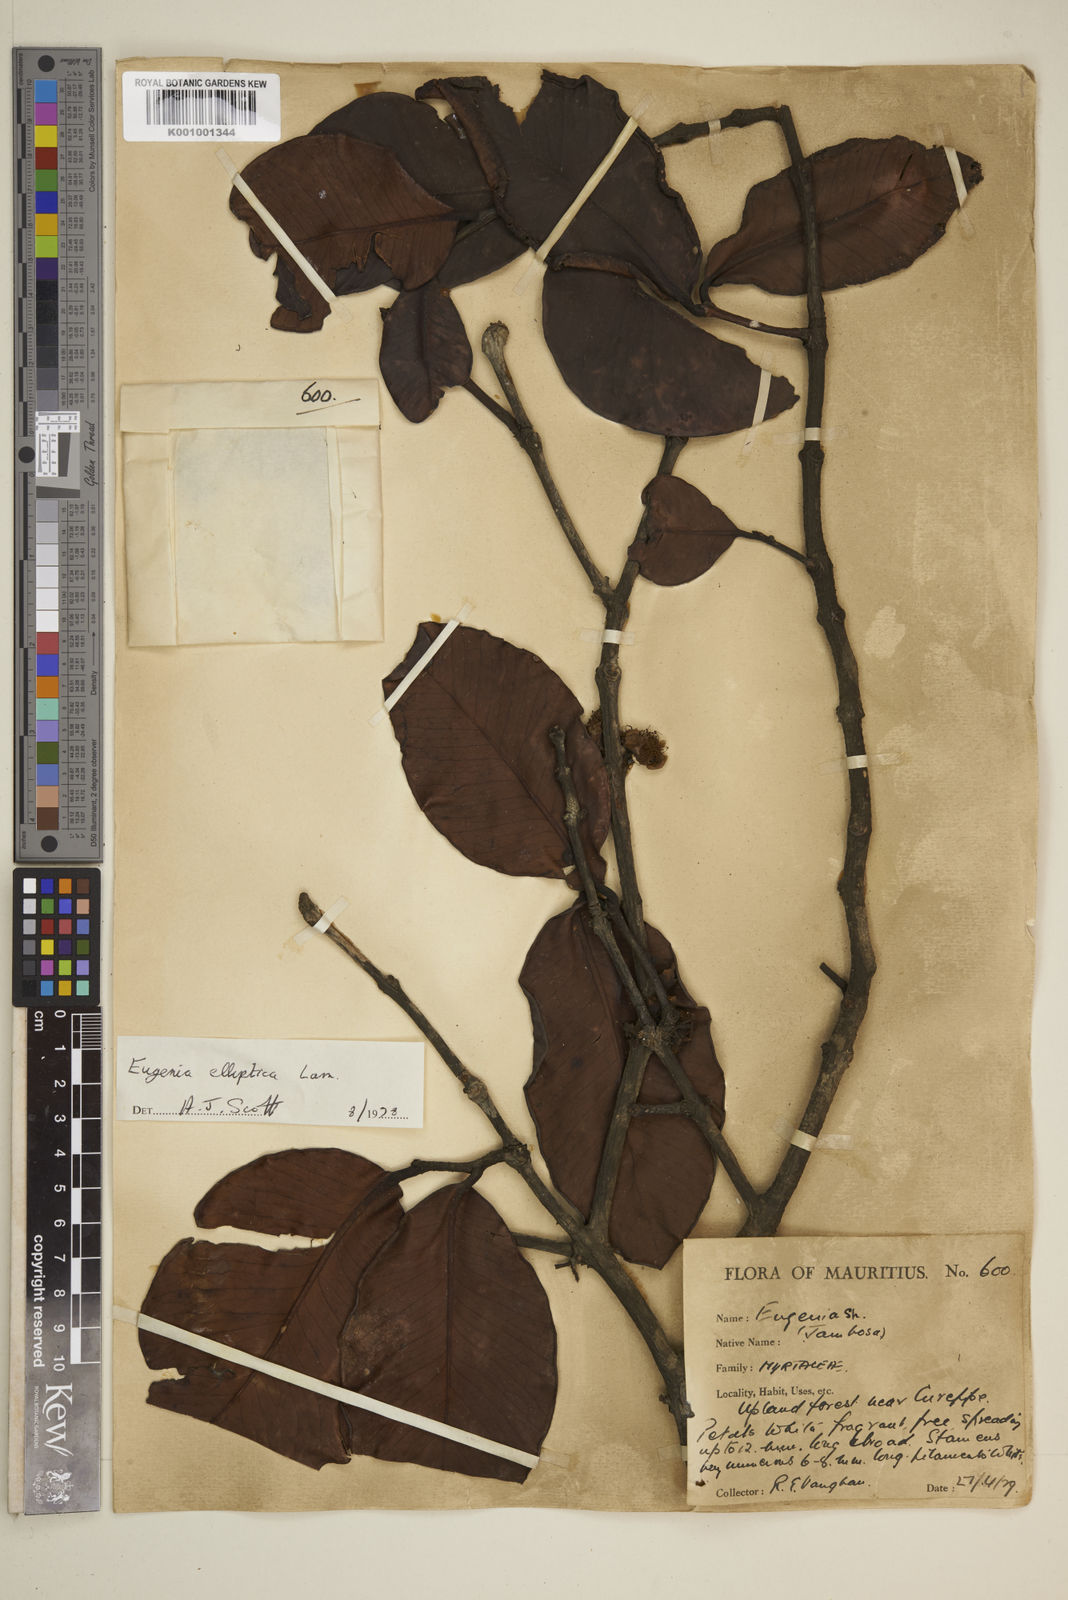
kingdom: Plantae
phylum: Tracheophyta
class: Magnoliopsida
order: Myrtales
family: Myrtaceae
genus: Eugenia
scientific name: Eugenia elliptica
